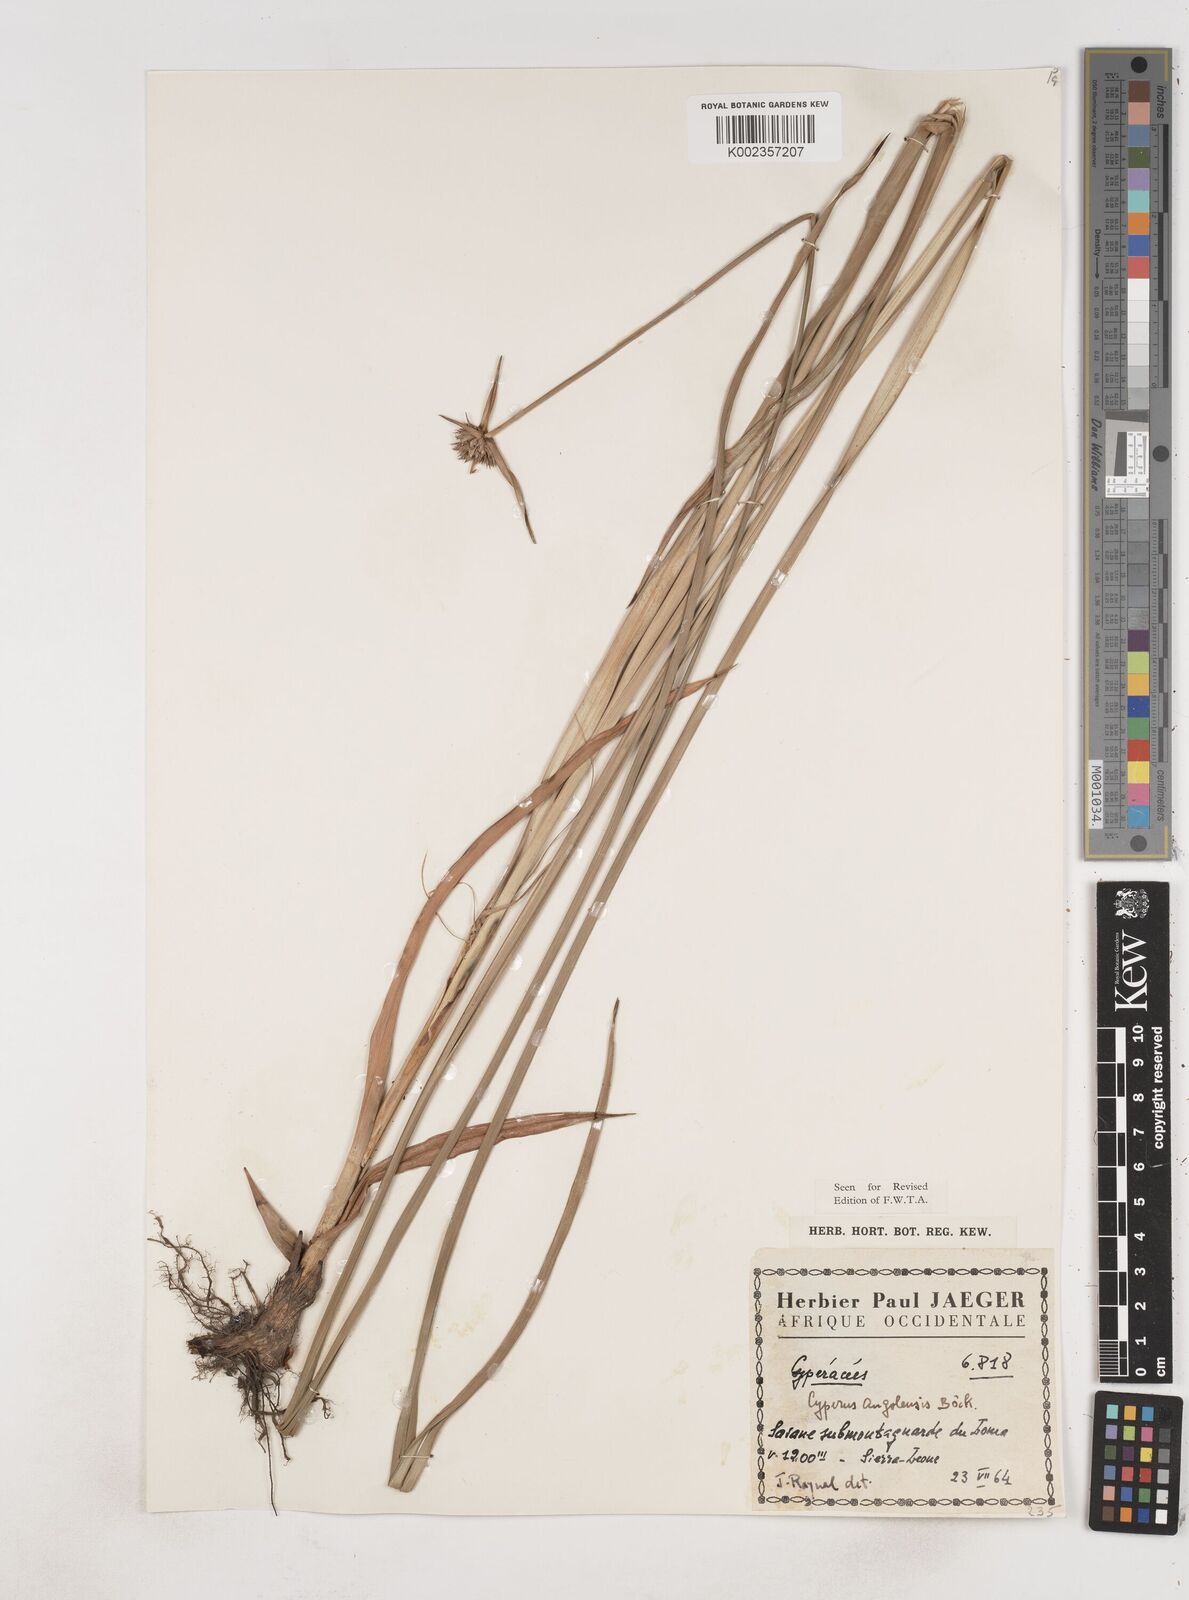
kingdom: Plantae
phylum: Tracheophyta
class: Liliopsida
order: Poales
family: Cyperaceae
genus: Cyperus
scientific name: Cyperus angolensis
